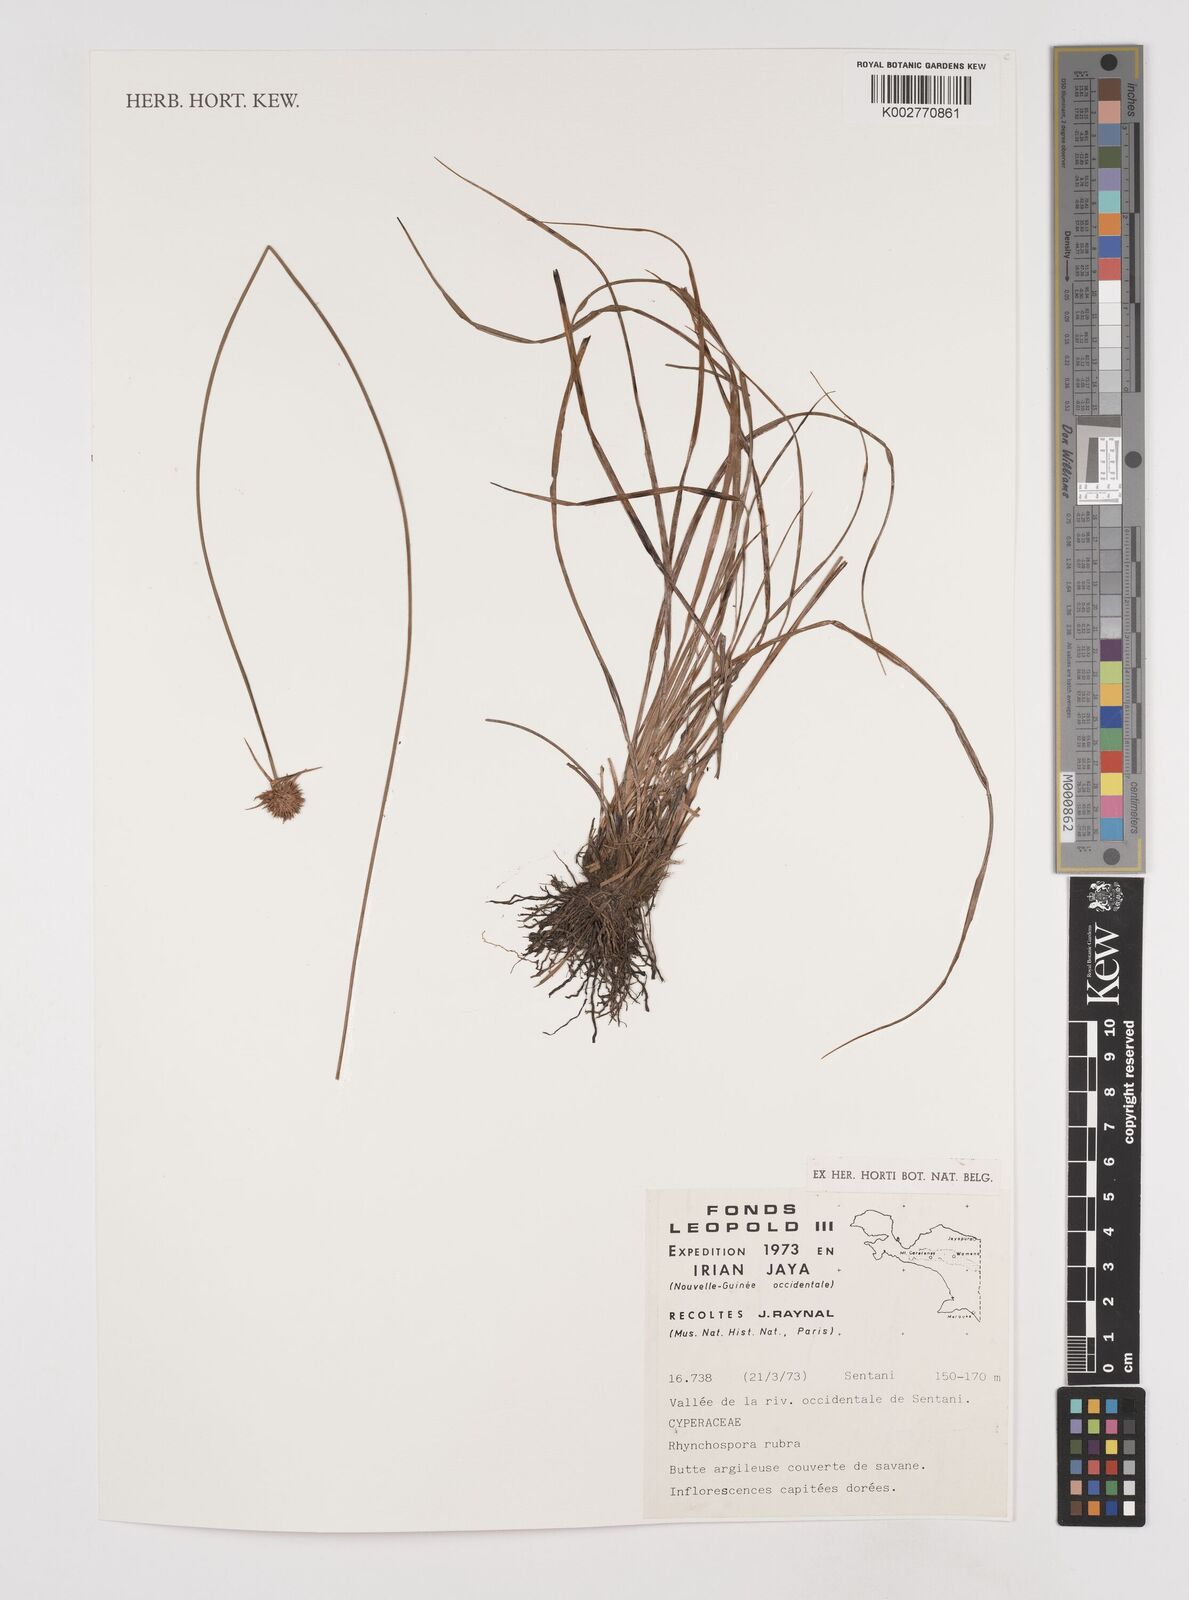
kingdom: Plantae
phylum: Tracheophyta
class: Liliopsida
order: Poales
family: Cyperaceae
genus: Rhynchospora
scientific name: Rhynchospora rubra
